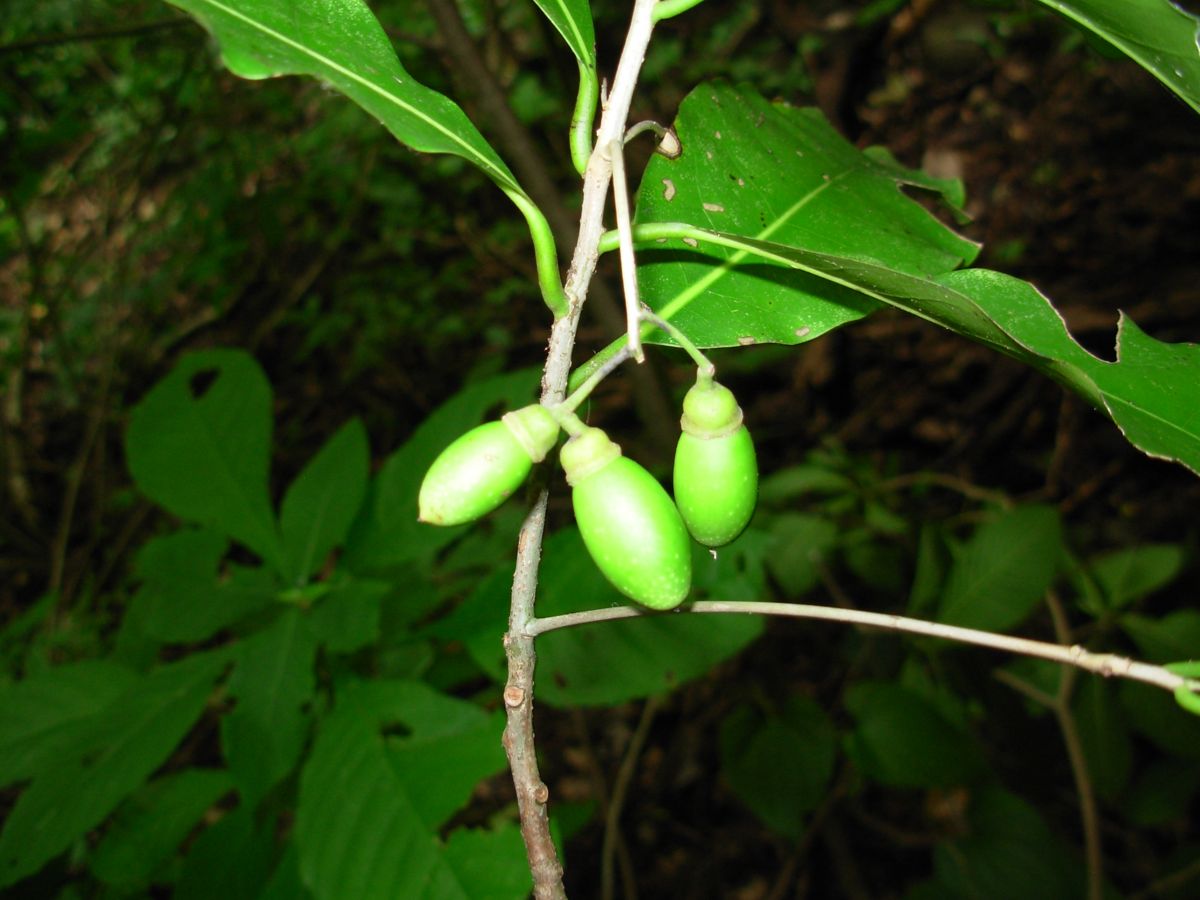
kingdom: Plantae
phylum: Tracheophyta
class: Magnoliopsida
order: Laurales
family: Lauraceae
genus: Mespilodaphne
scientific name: Mespilodaphne veraguensis
